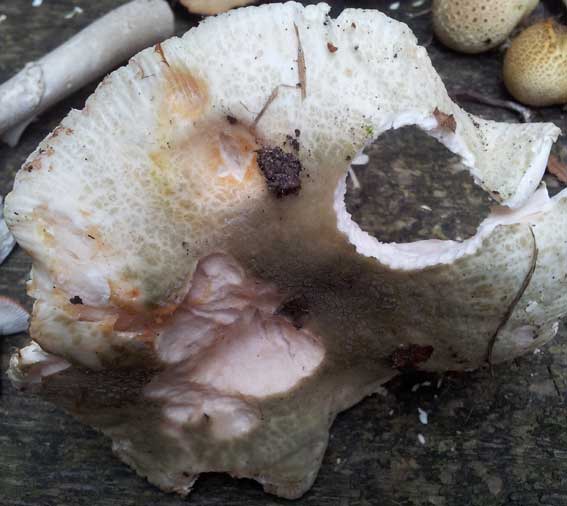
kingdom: Fungi
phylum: Basidiomycota
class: Agaricomycetes
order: Russulales
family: Russulaceae
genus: Russula
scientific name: Russula virescens
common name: spanskgrøn skørhat
